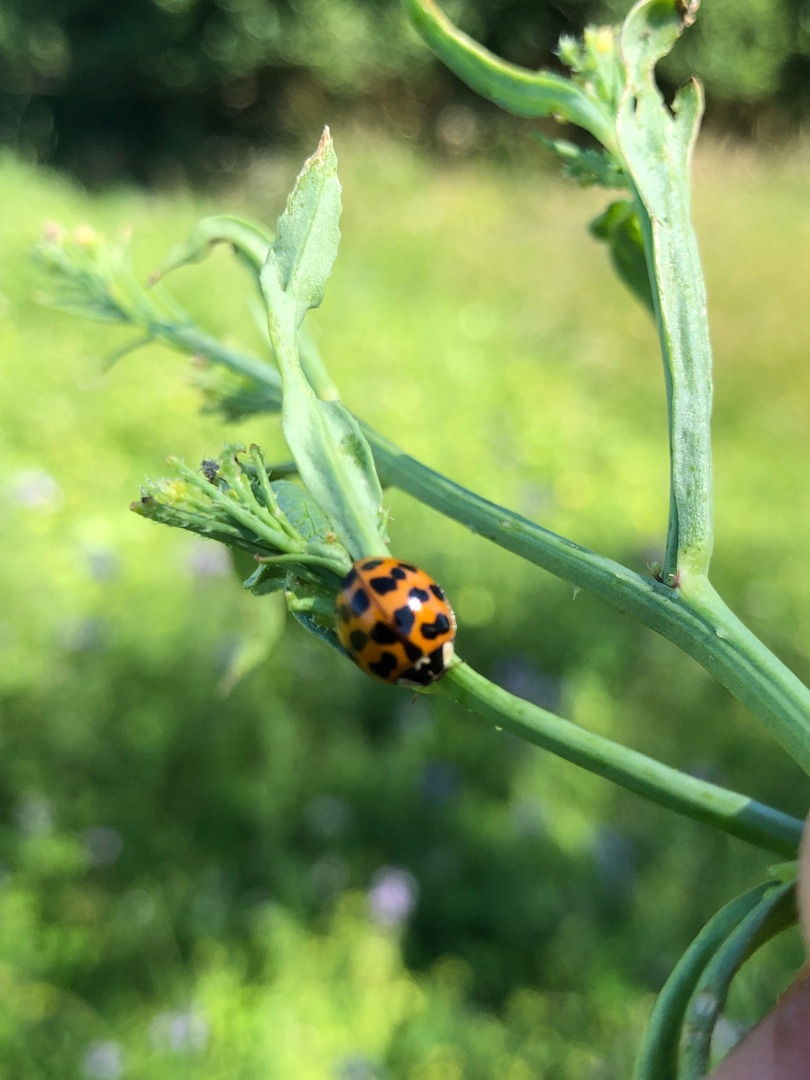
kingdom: Animalia
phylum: Arthropoda
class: Insecta
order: Coleoptera
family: Coccinellidae
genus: Harmonia
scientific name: Harmonia axyridis
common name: Harlekinmariehøne
